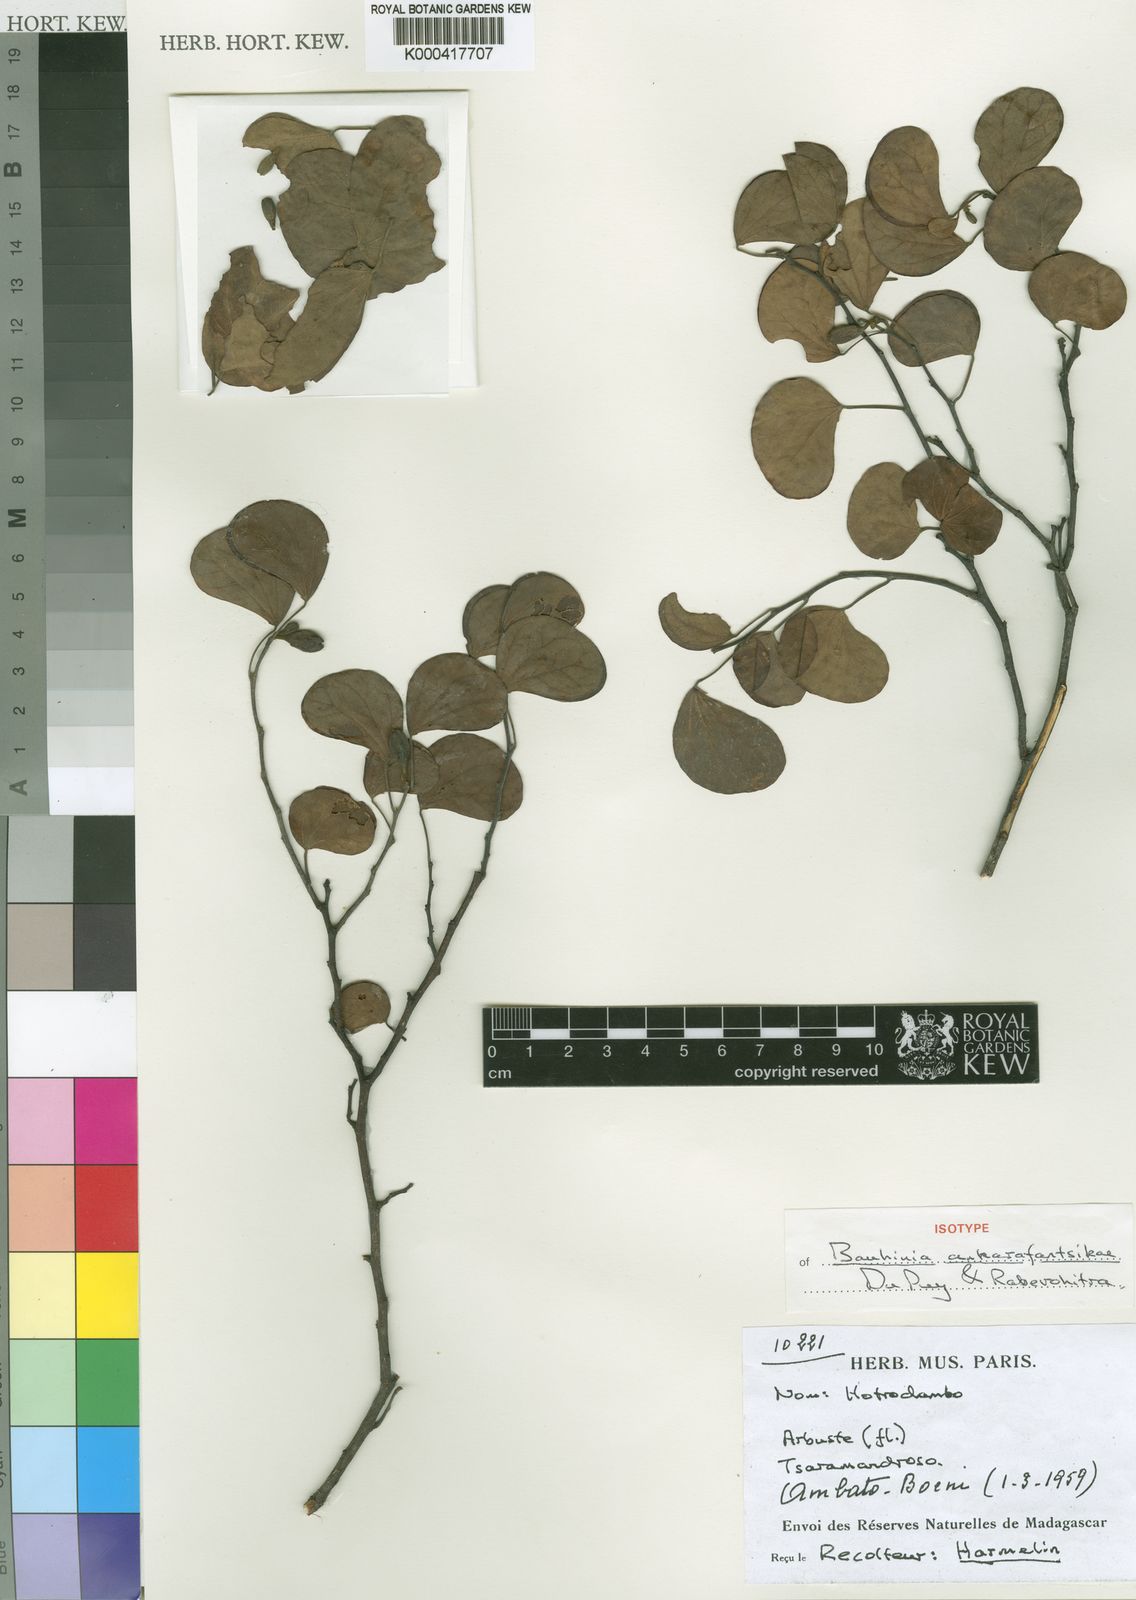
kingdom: Plantae
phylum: Tracheophyta
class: Magnoliopsida
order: Fabales
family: Fabaceae
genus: Bauhinia
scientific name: Bauhinia ankarafantsikae
